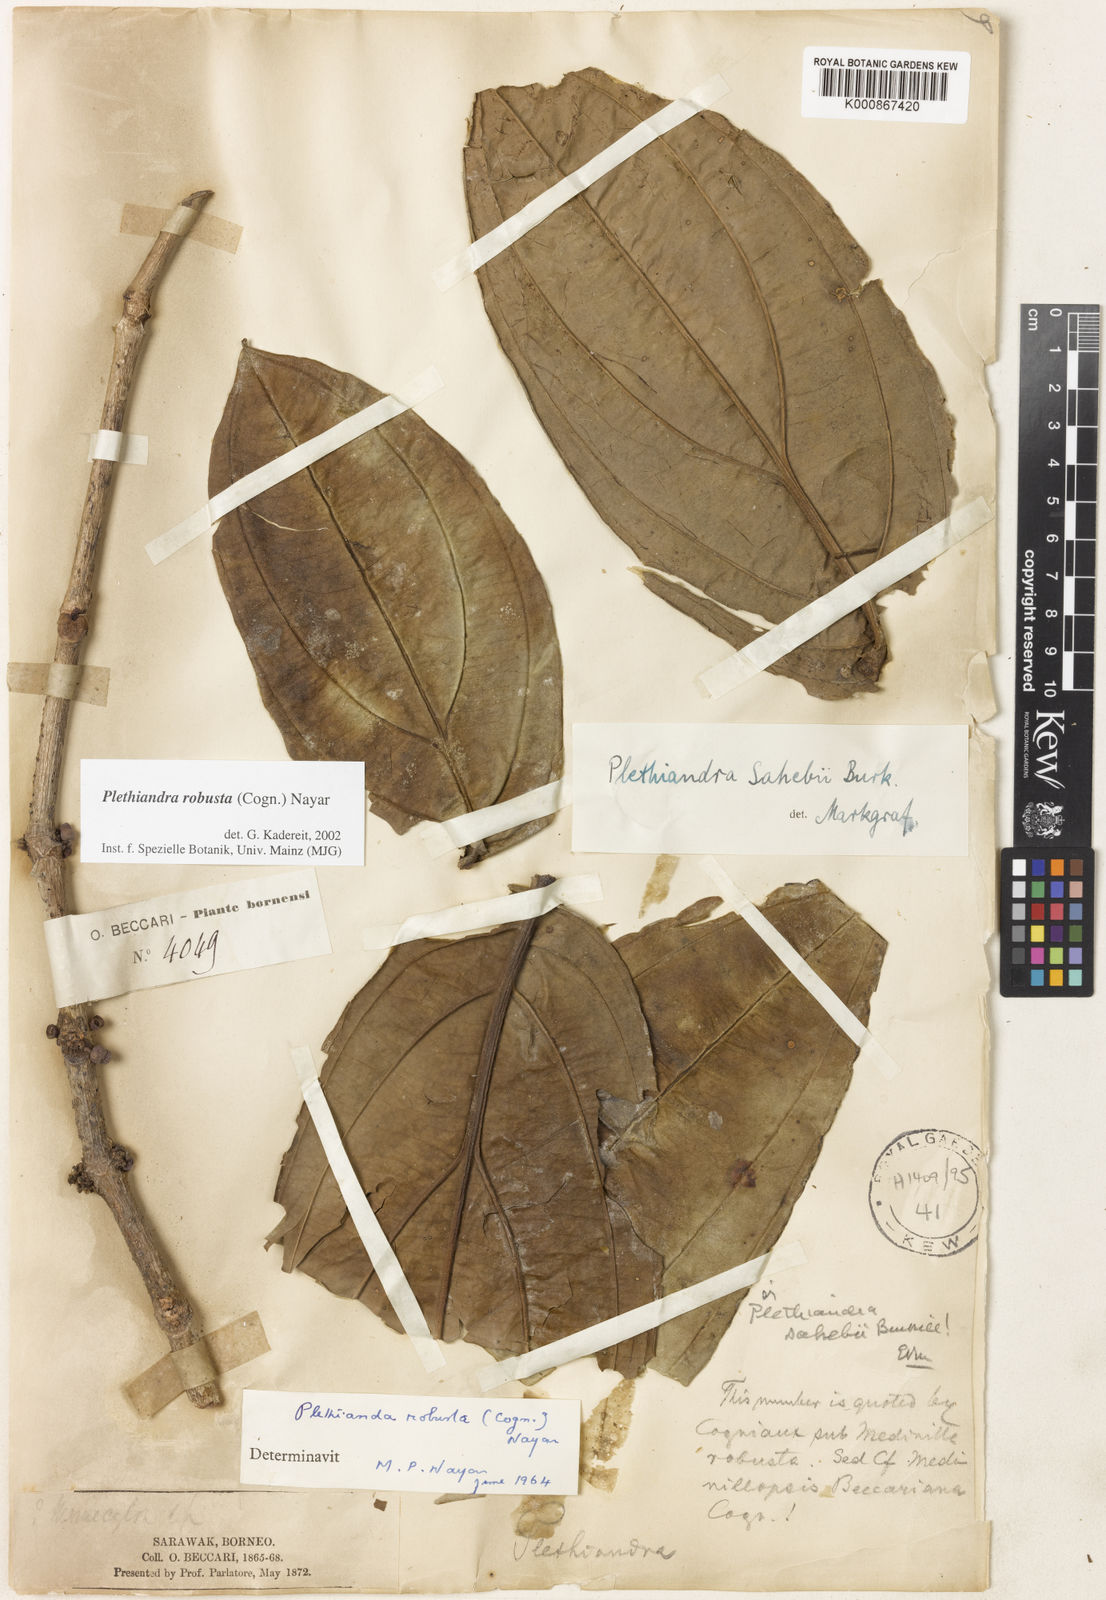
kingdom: Plantae
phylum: Tracheophyta
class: Magnoliopsida
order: Myrtales
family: Melastomataceae
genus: Plethiandra
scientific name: Plethiandra robusta
